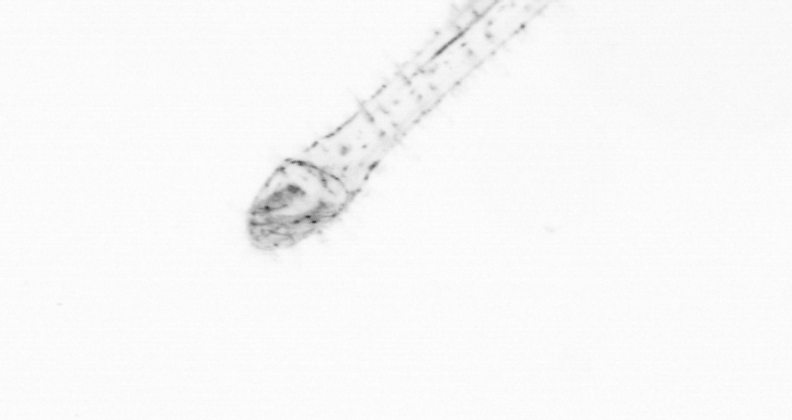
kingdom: Animalia
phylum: Chaetognatha
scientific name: Chaetognatha
